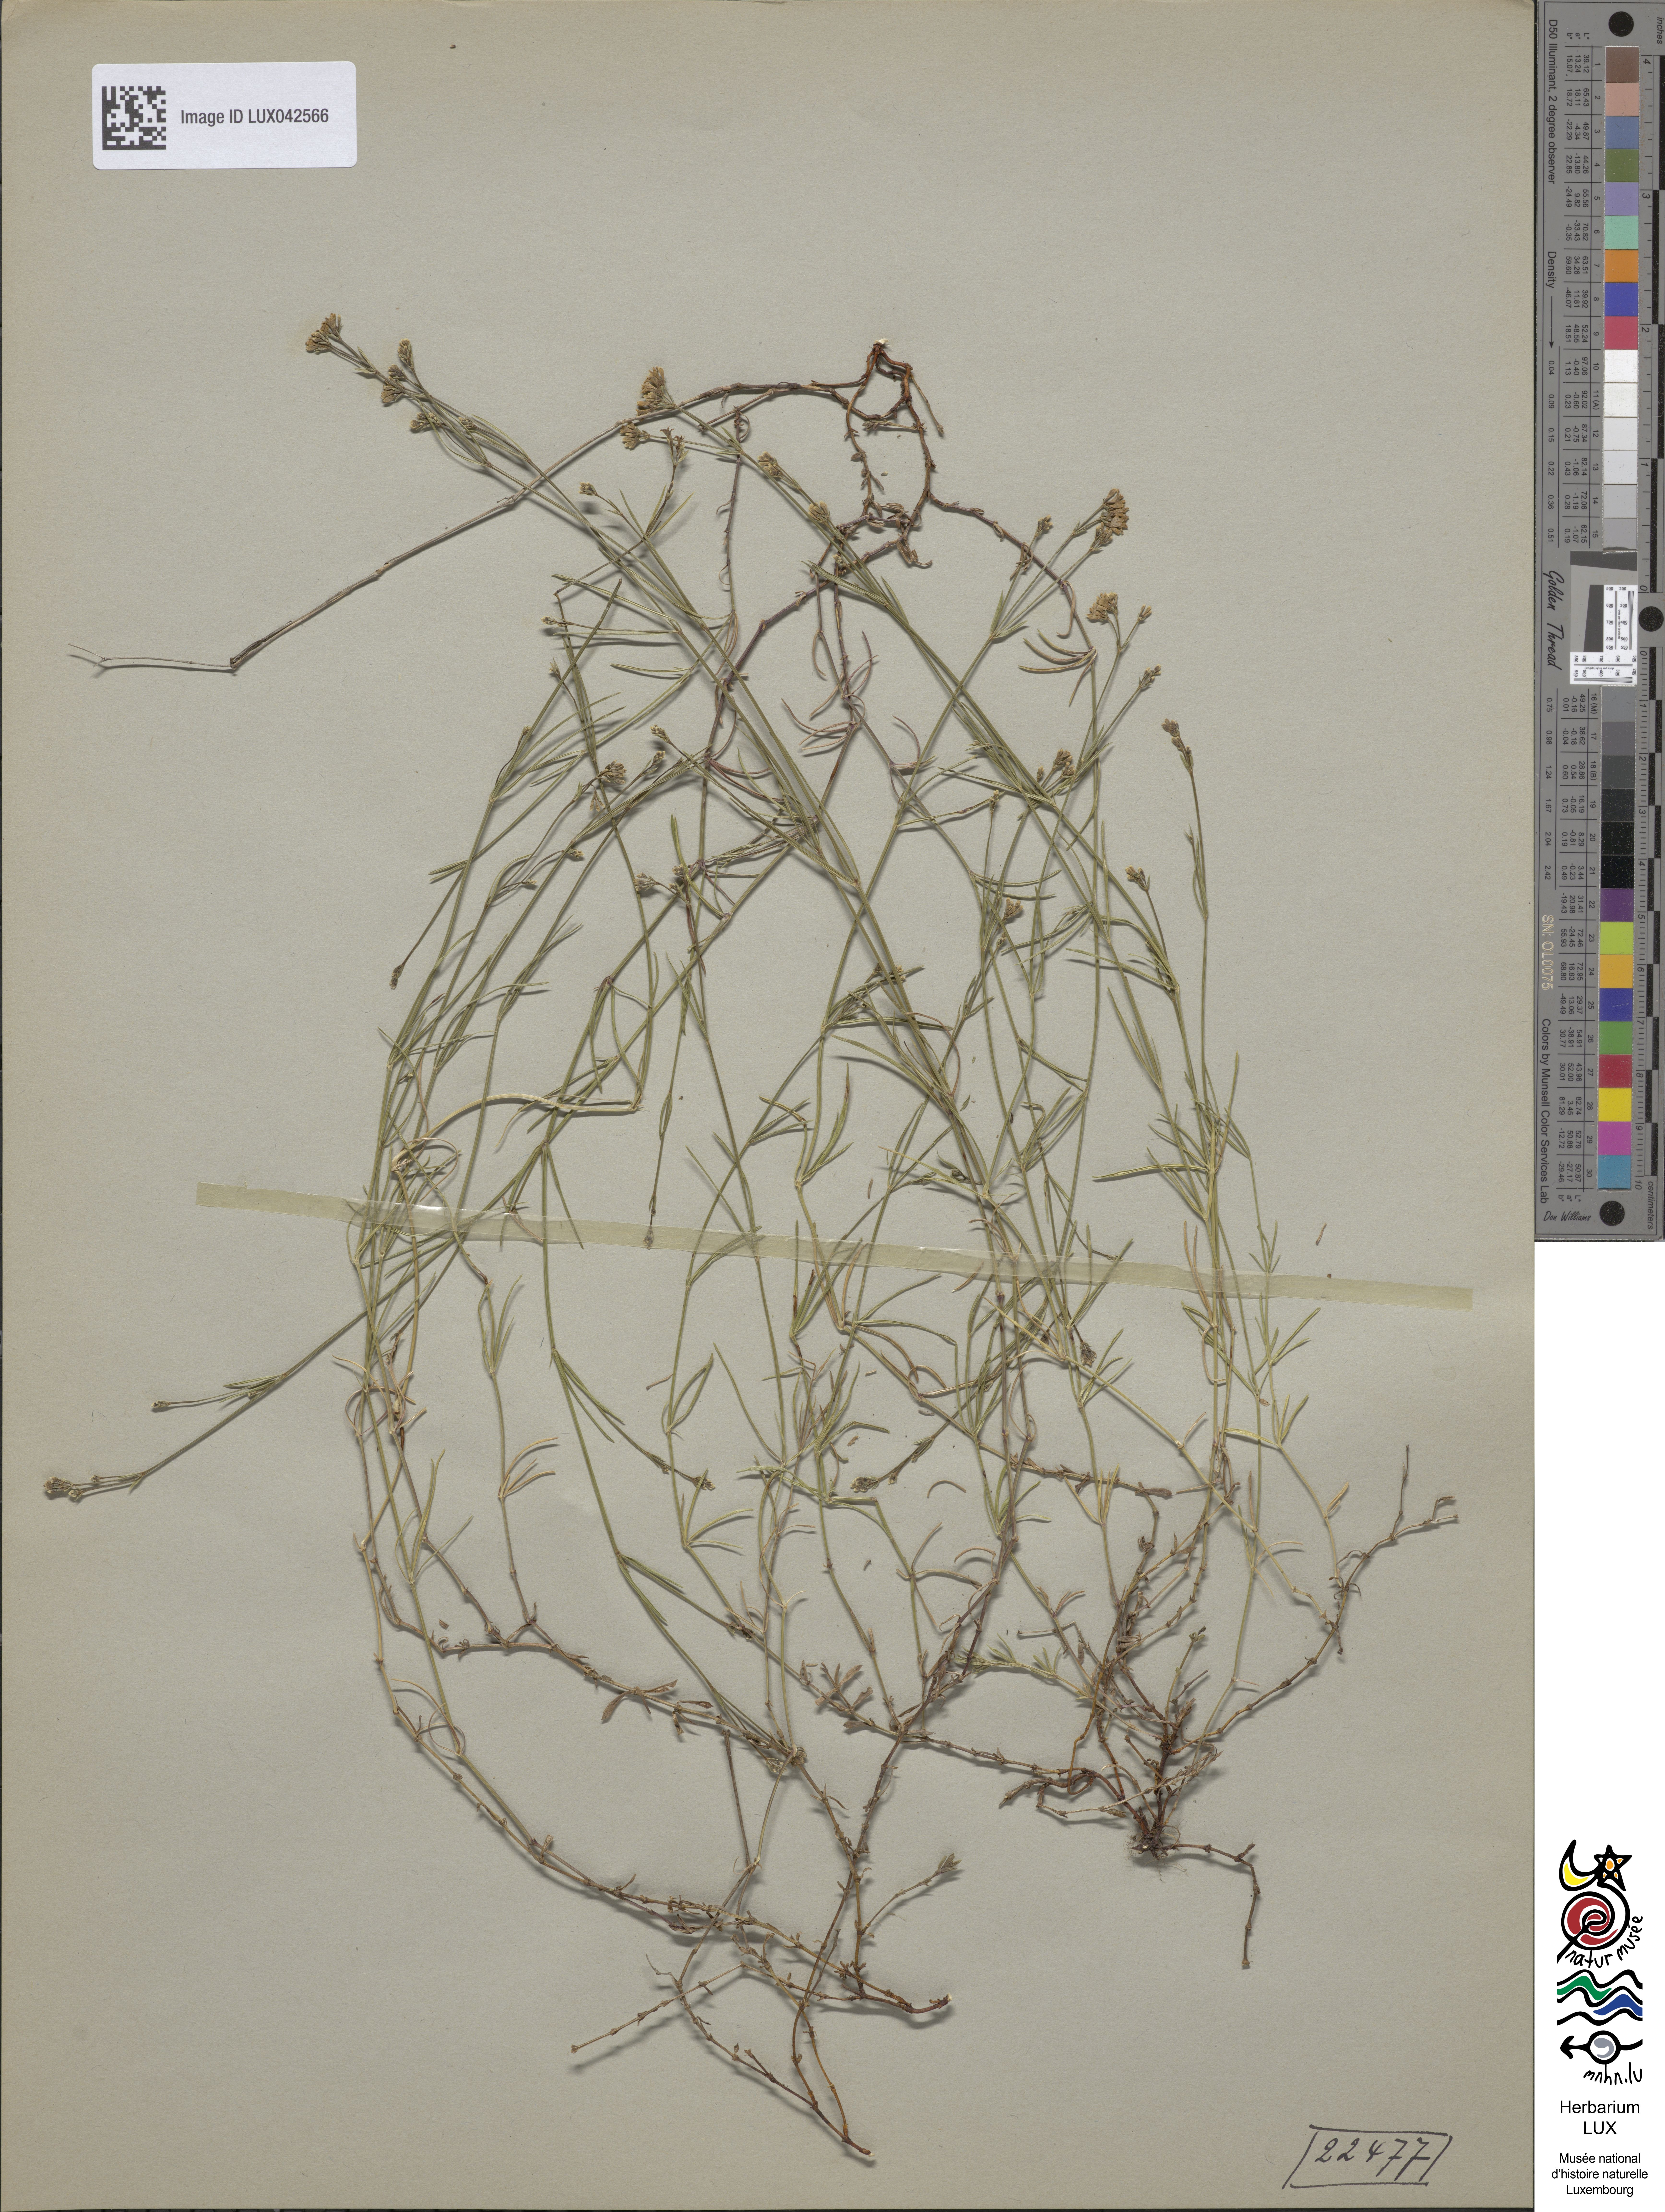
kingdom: Plantae
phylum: Tracheophyta
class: Magnoliopsida
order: Gentianales
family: Rubiaceae
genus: Cynanchica
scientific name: Cynanchica pyrenaica
